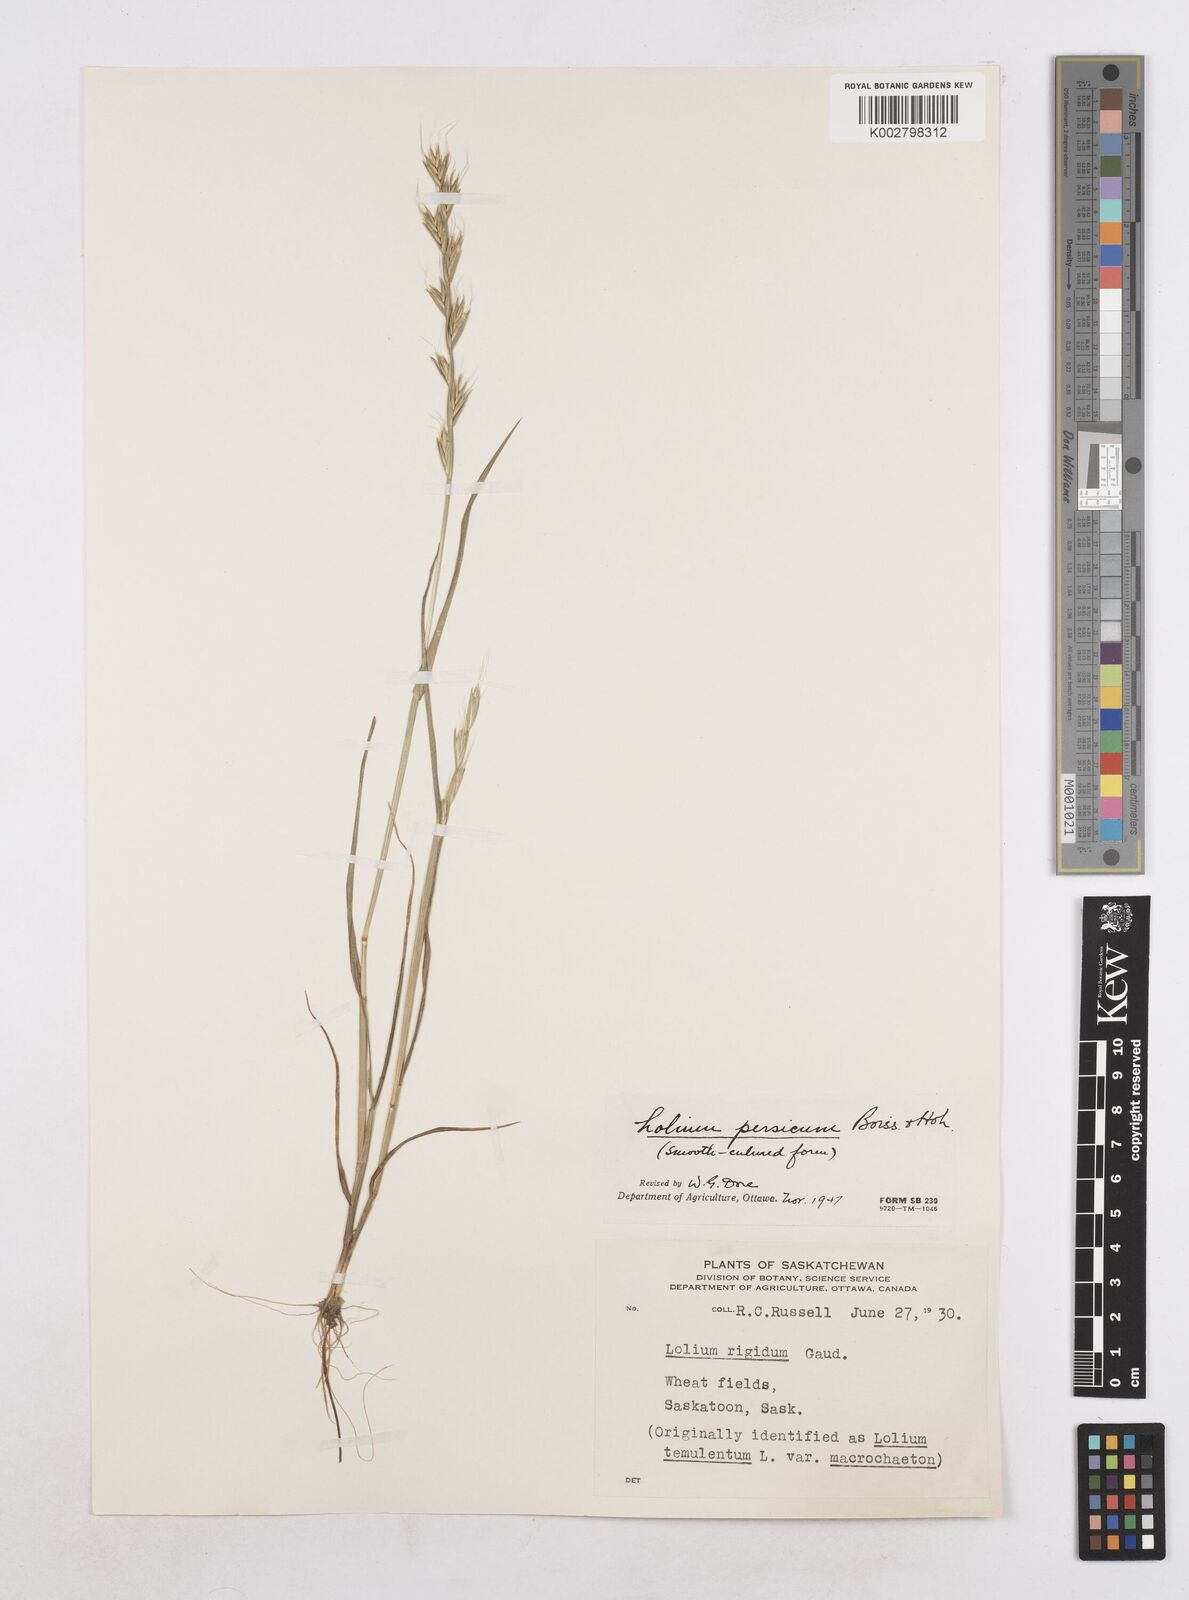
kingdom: Plantae
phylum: Tracheophyta
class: Liliopsida
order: Poales
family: Poaceae
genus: Lolium
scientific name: Lolium persicum
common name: Persian ryegrass
